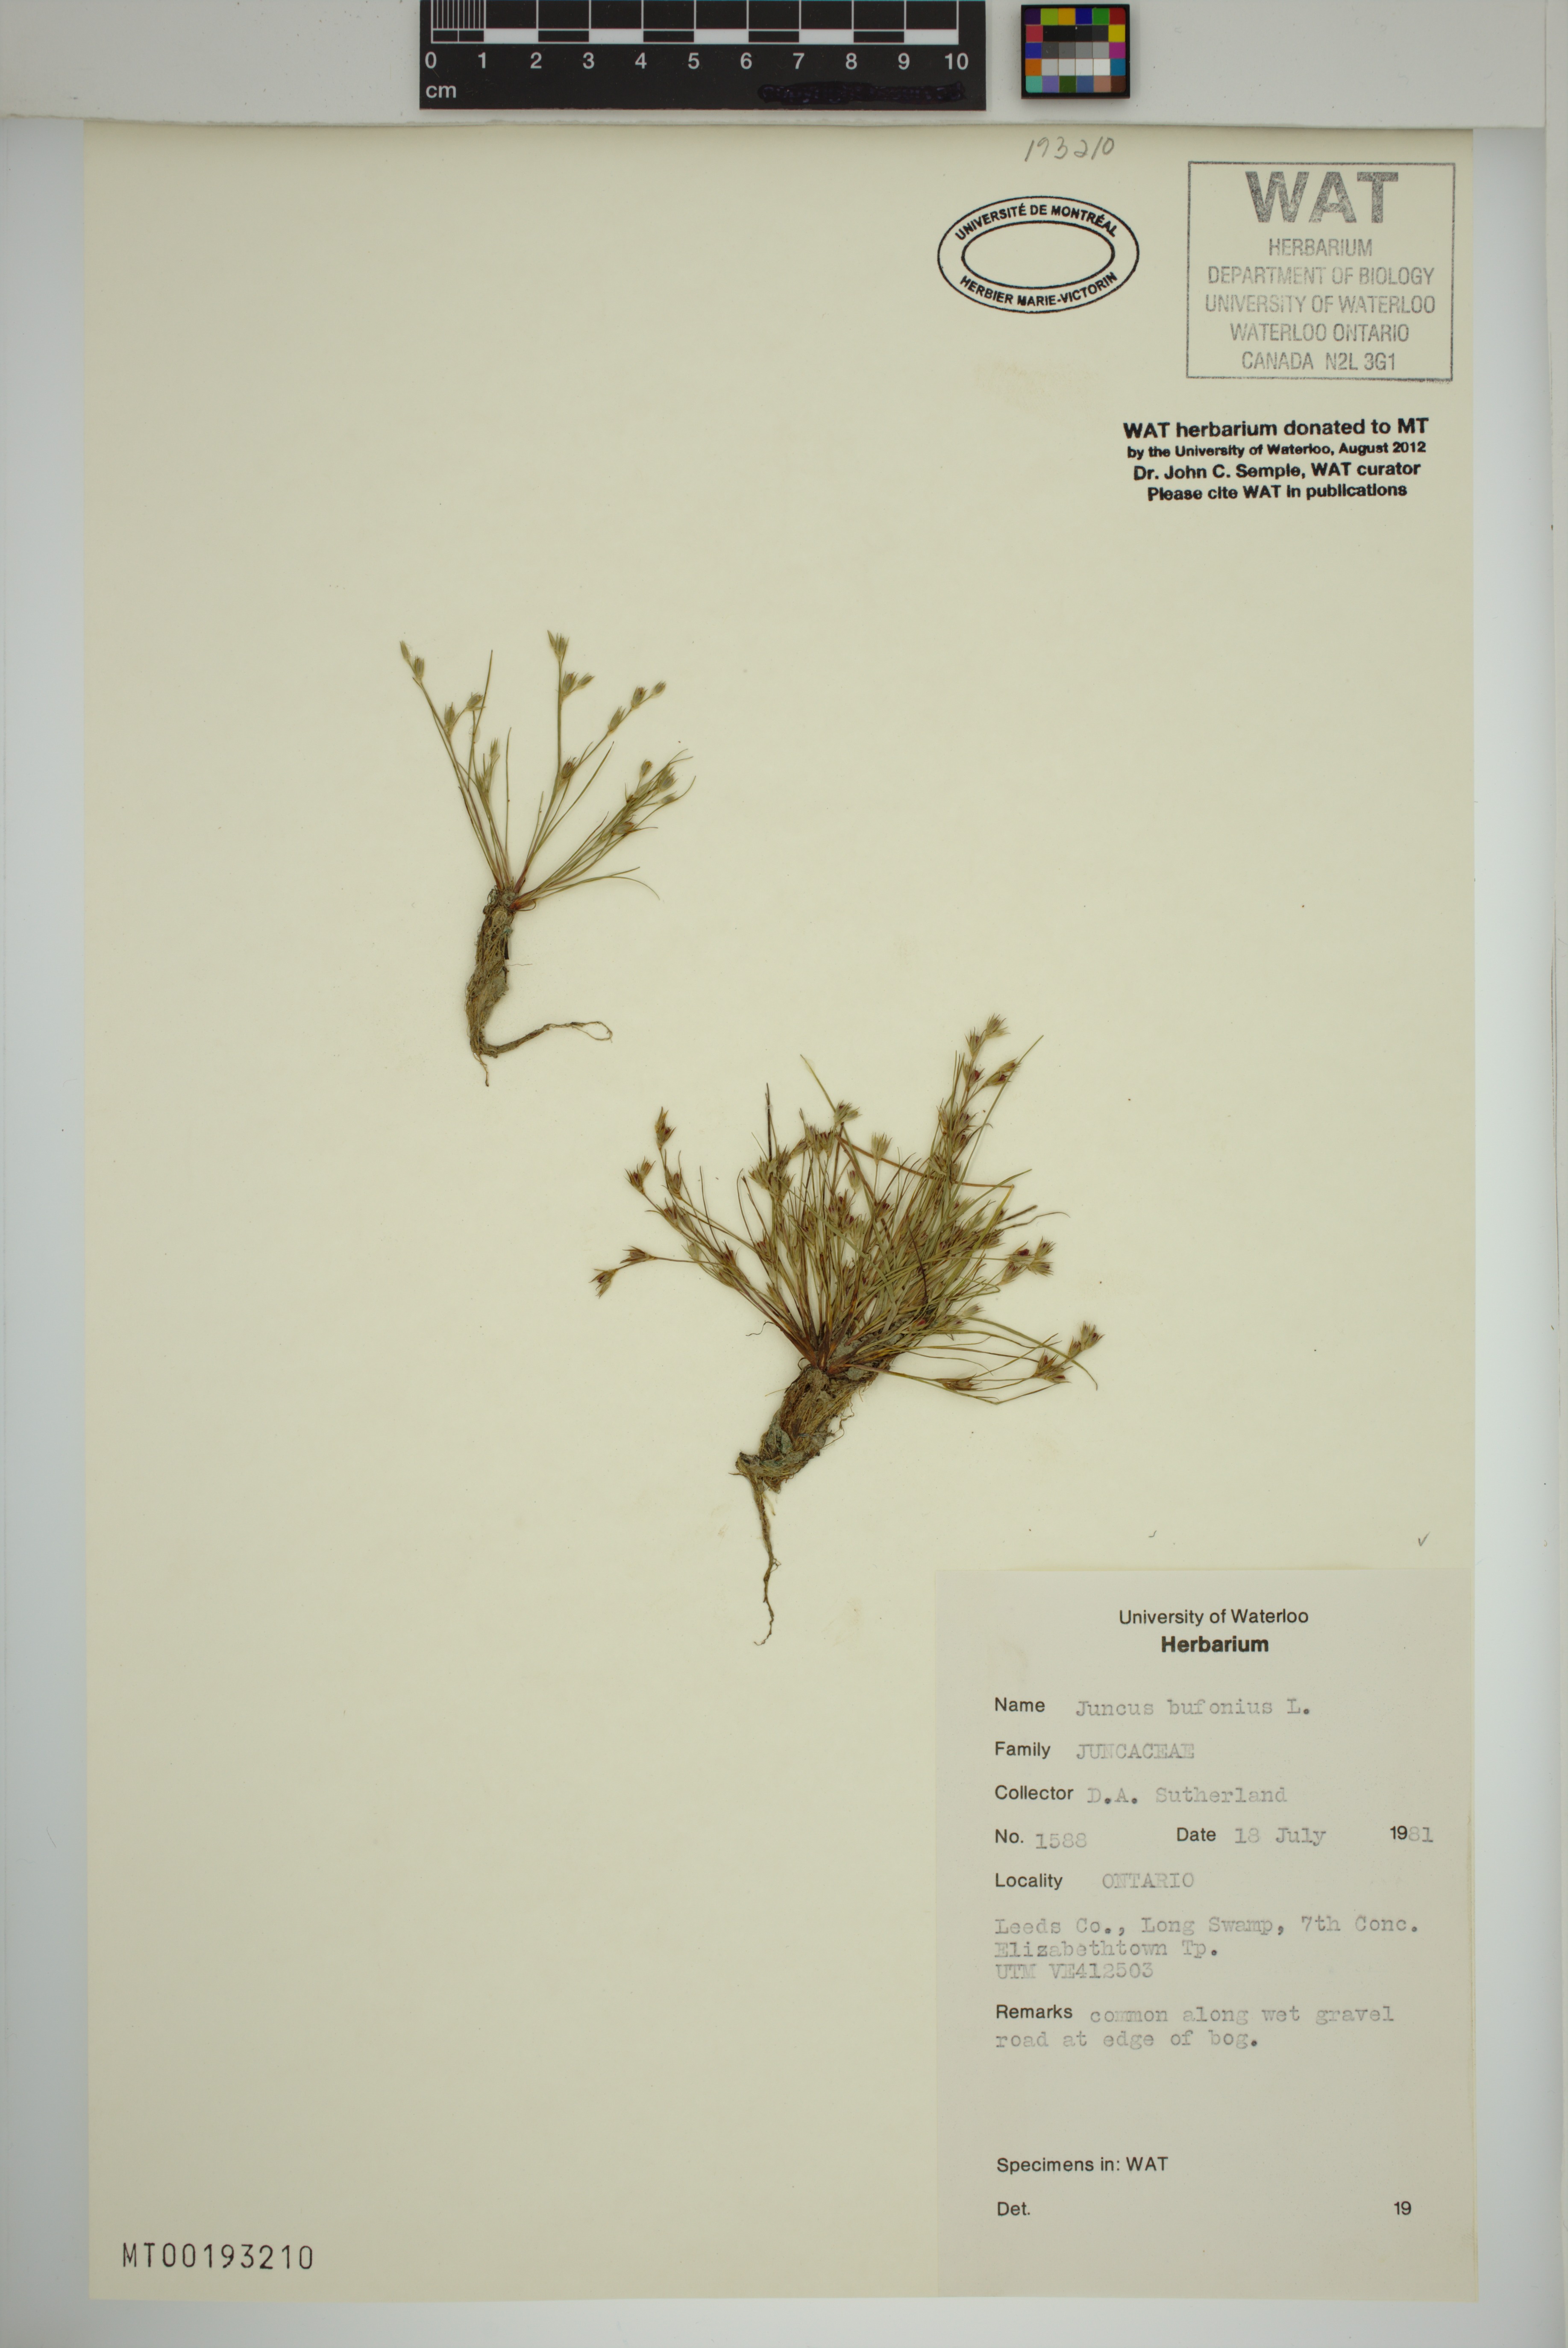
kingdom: Plantae
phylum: Tracheophyta
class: Liliopsida
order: Poales
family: Juncaceae
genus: Juncus
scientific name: Juncus bufonius
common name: Toad rush
